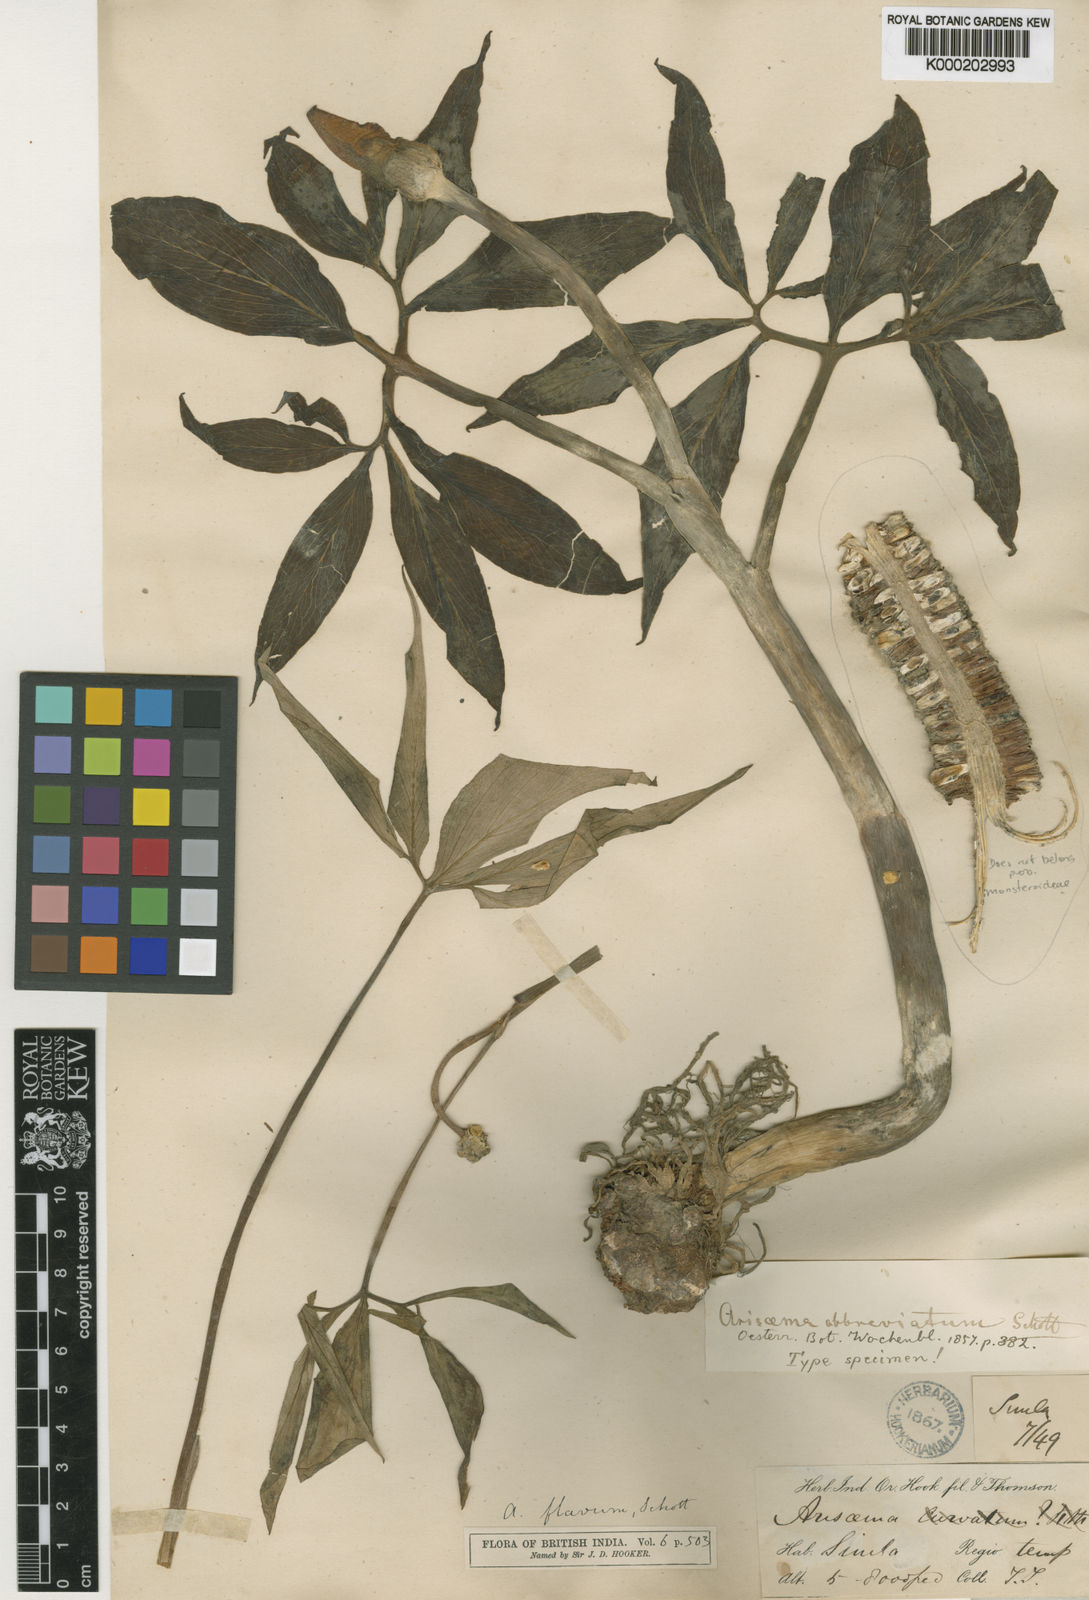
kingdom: Plantae
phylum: Tracheophyta
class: Liliopsida
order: Alismatales
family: Araceae
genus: Arisaema
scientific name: Arisaema flavum
